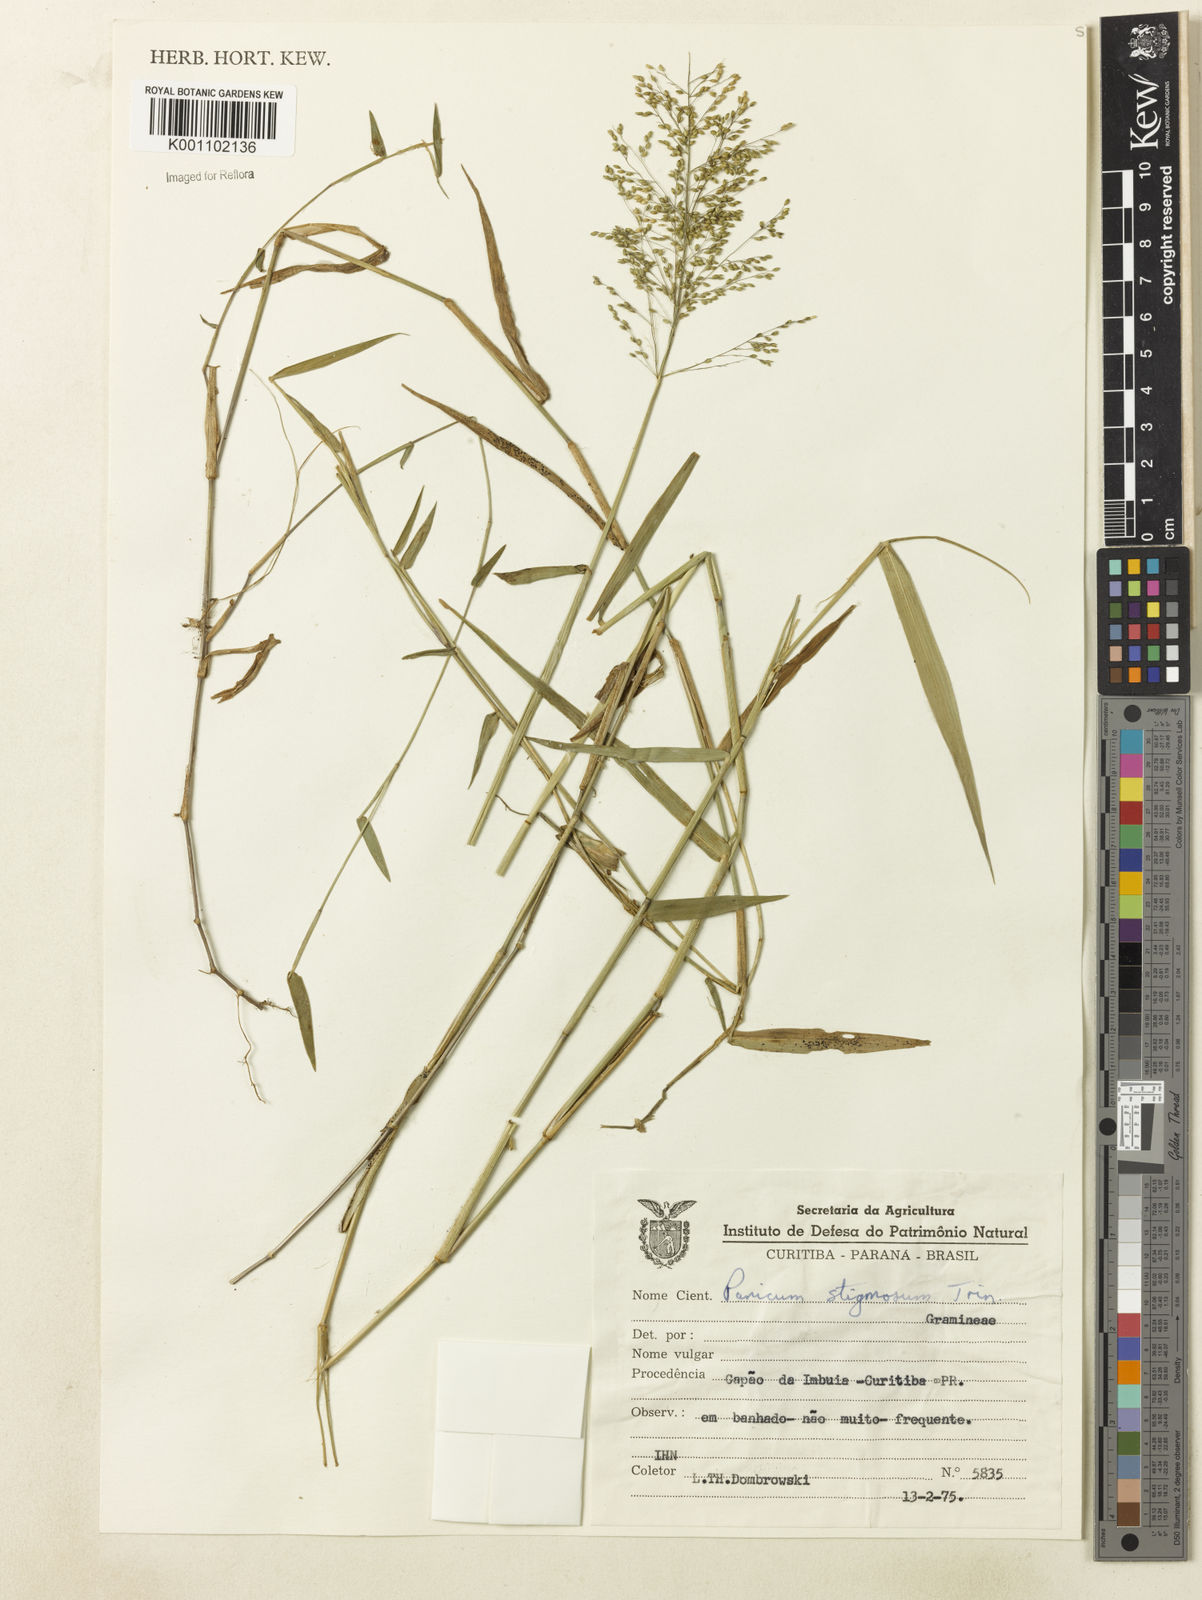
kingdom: Plantae
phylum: Tracheophyta
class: Liliopsida
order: Poales
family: Poaceae
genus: Dichanthelium
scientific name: Dichanthelium stigmosum
